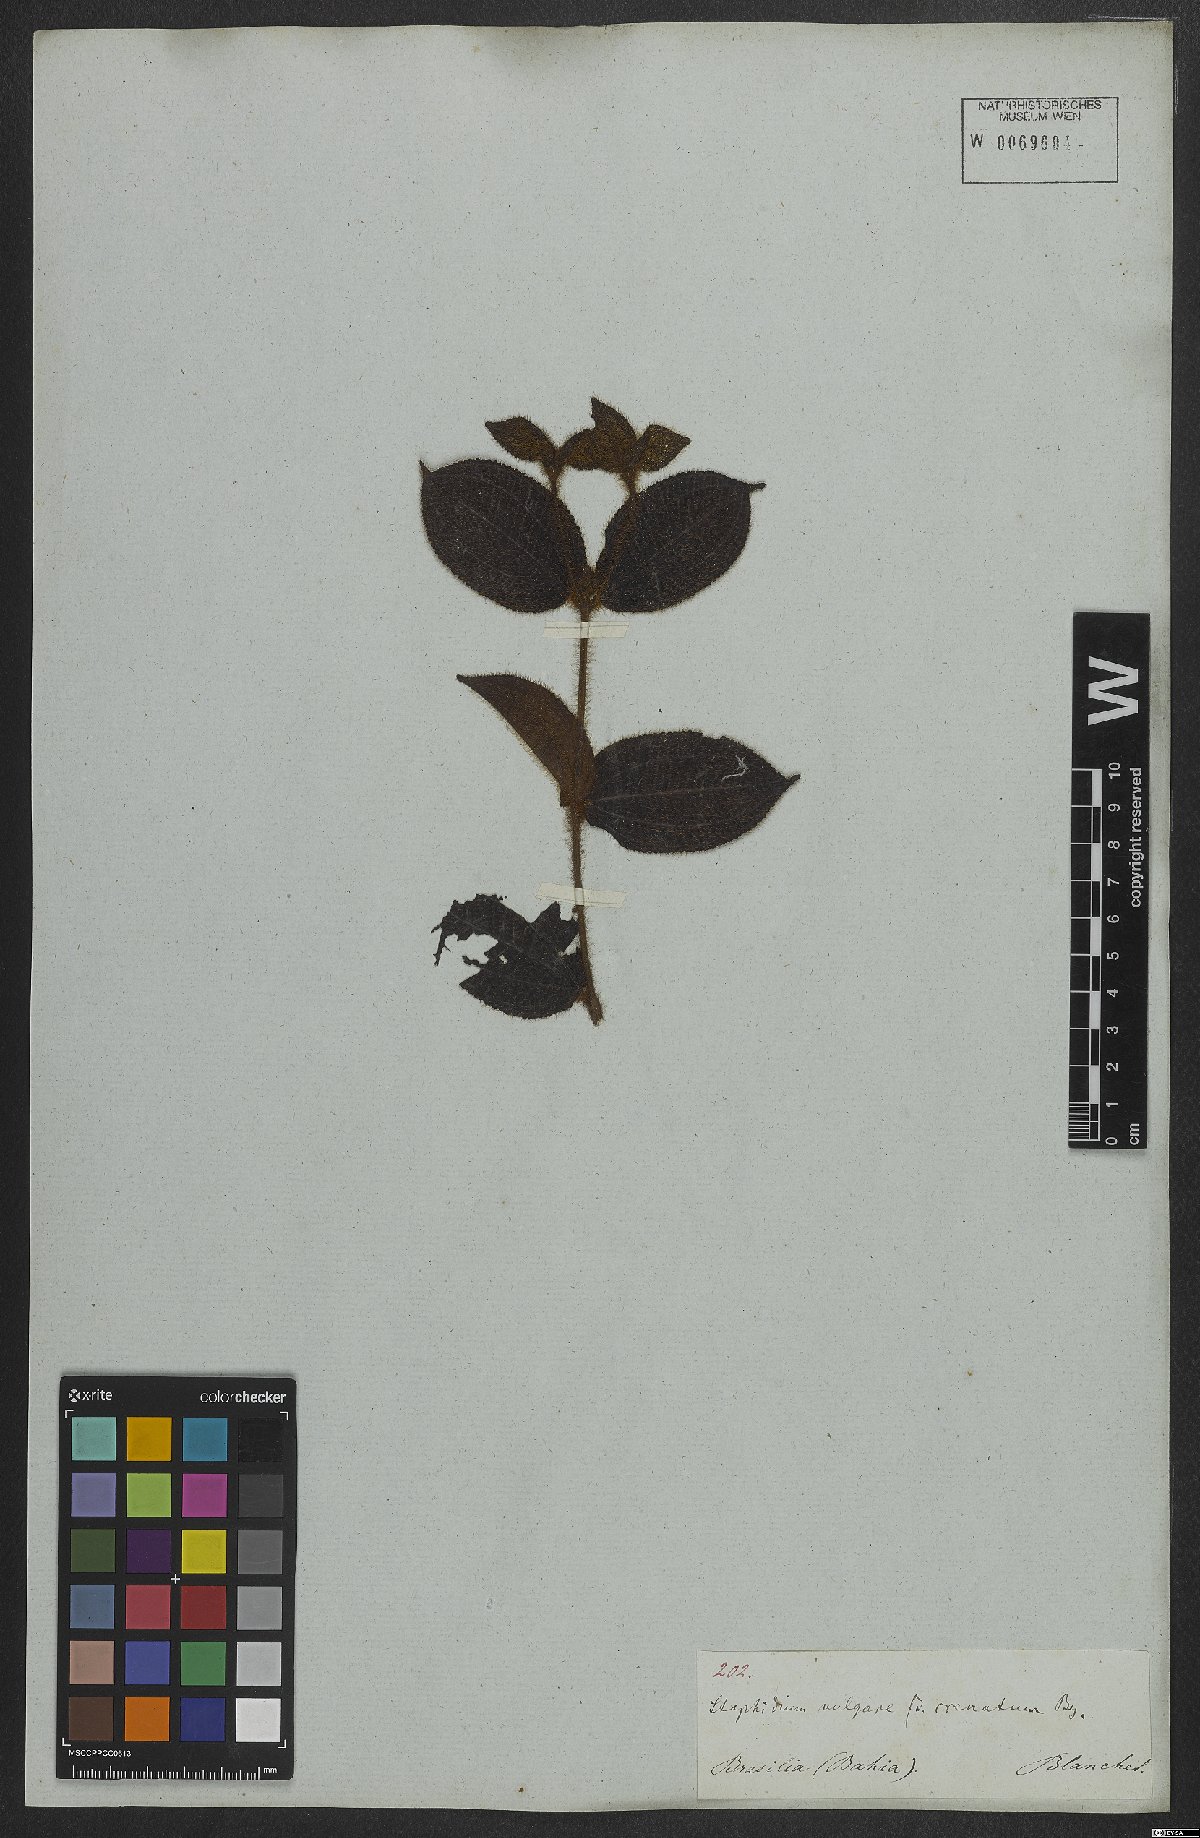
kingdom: Plantae
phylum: Tracheophyta
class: Magnoliopsida
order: Myrtales
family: Melastomataceae
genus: Miconia
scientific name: Miconia crenata
